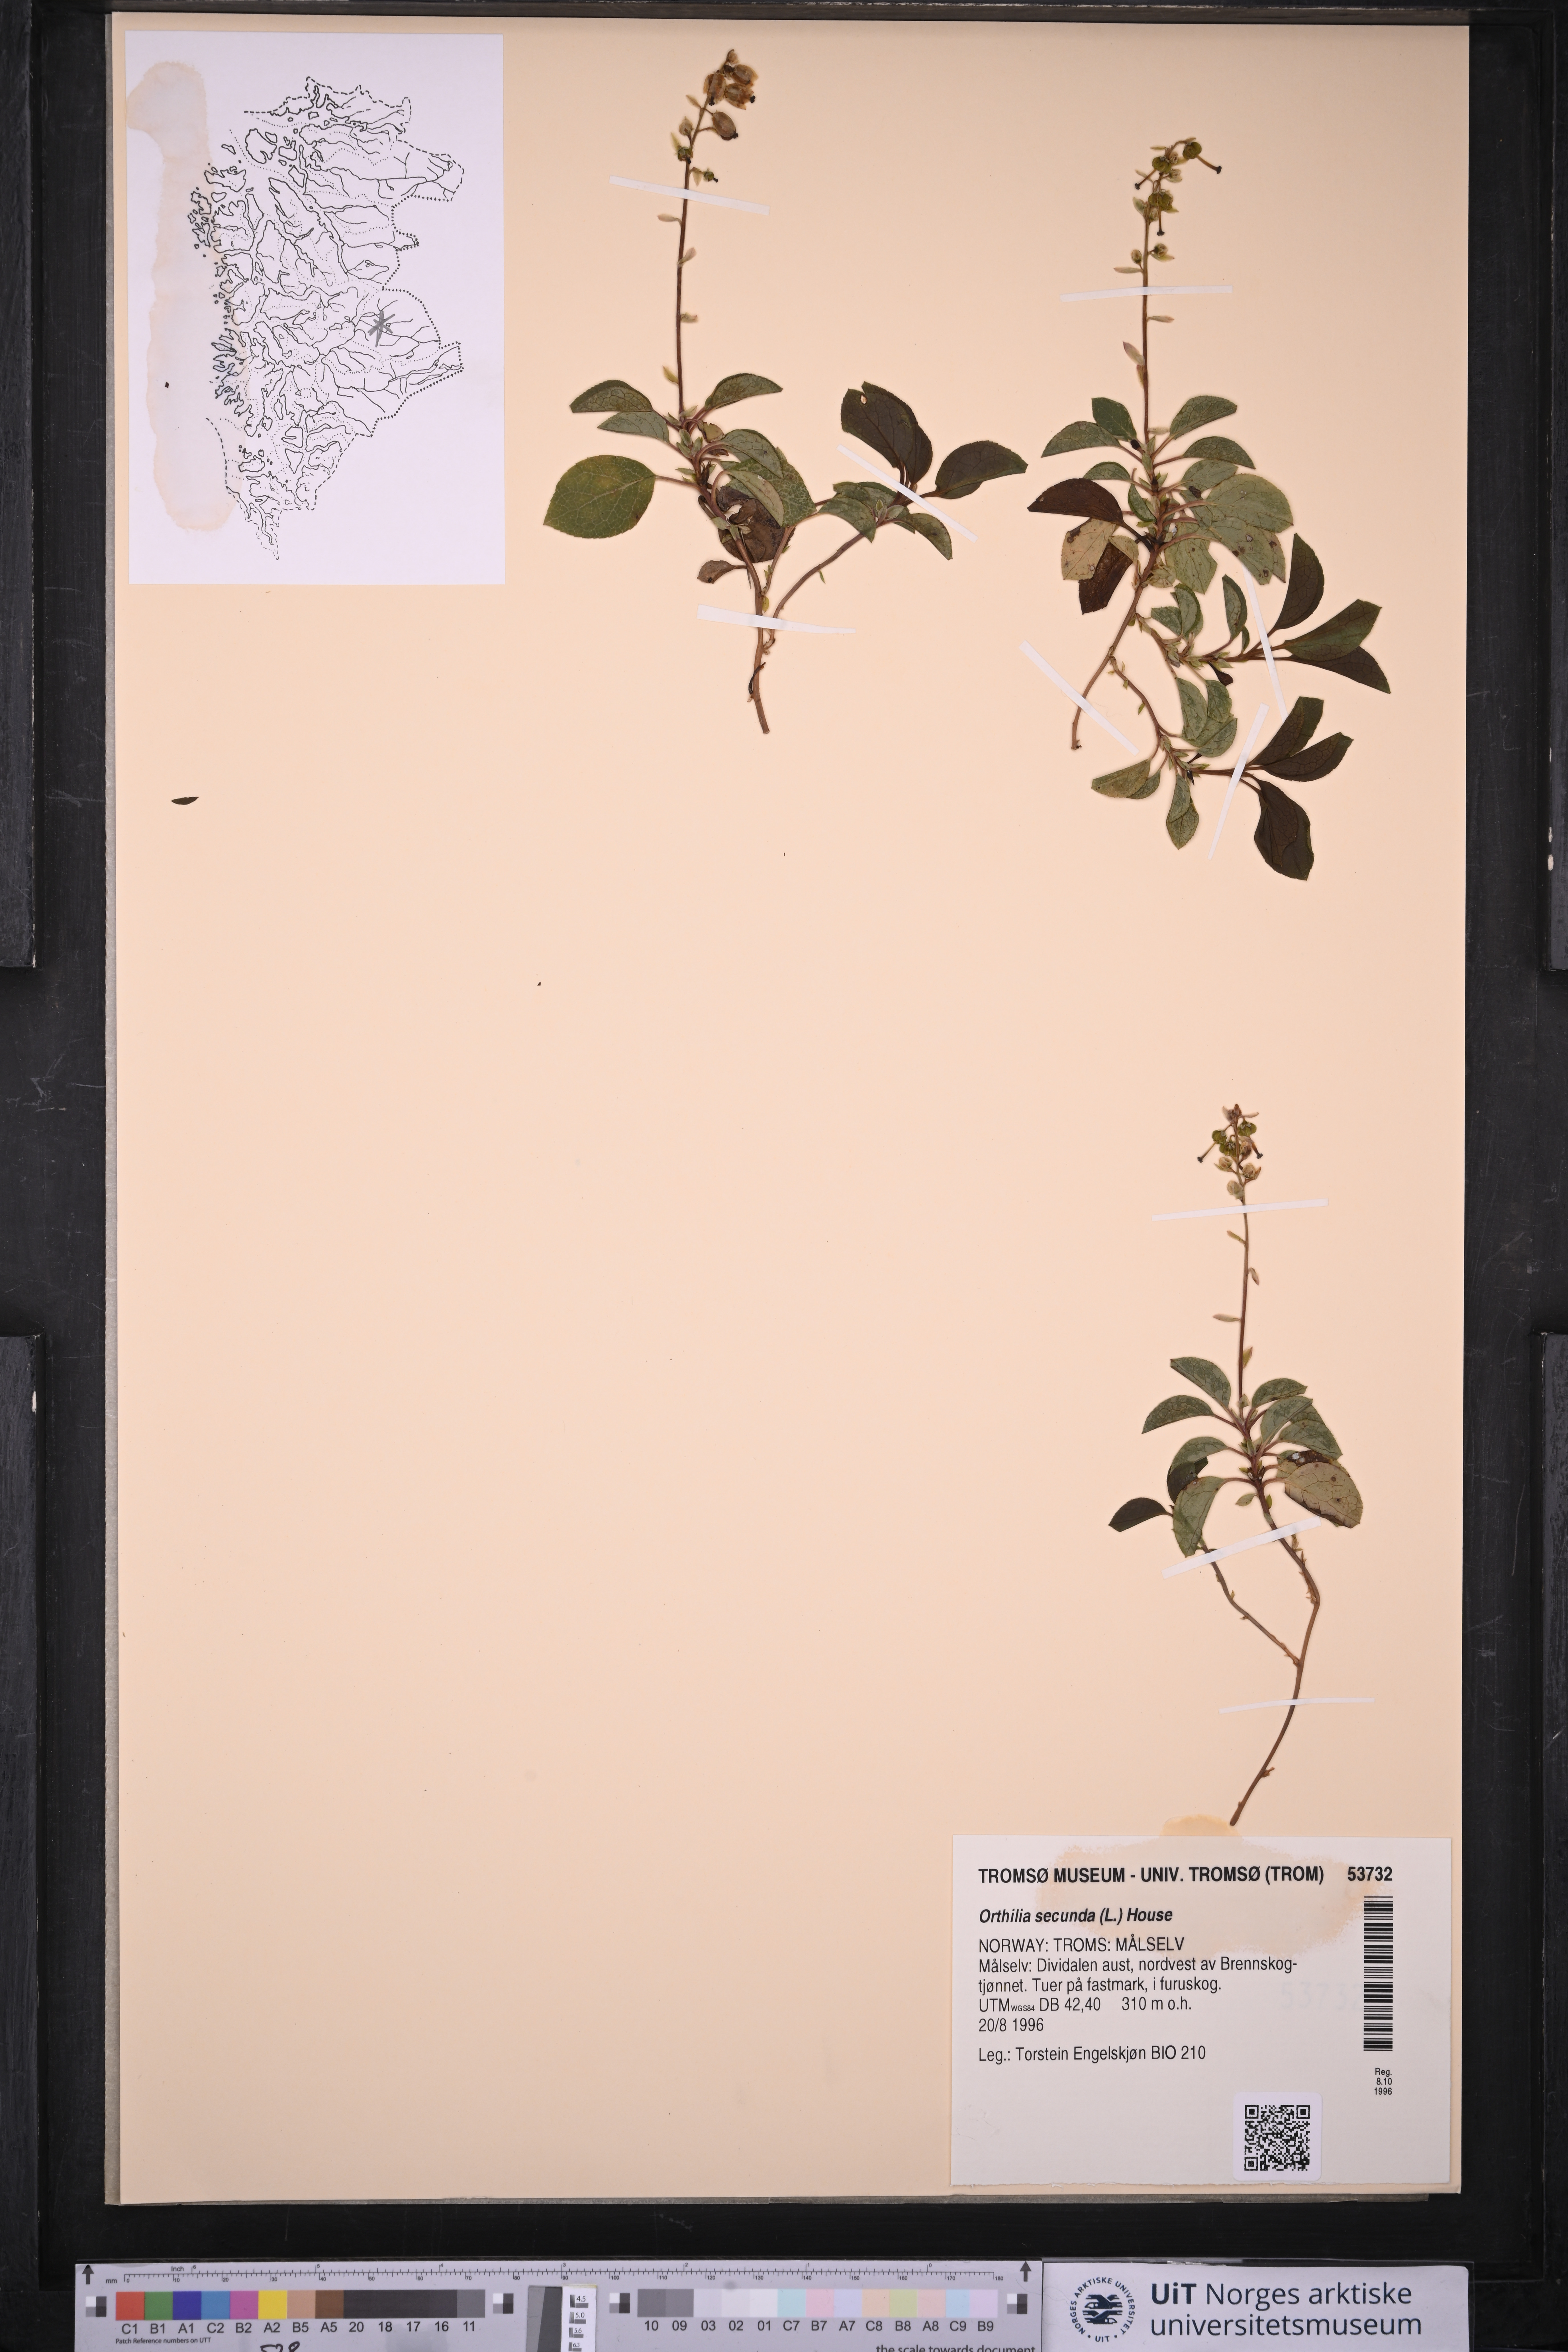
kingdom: Plantae
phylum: Tracheophyta
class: Magnoliopsida
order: Ericales
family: Ericaceae
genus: Orthilia
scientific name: Orthilia secunda
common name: One-sided orthilia
